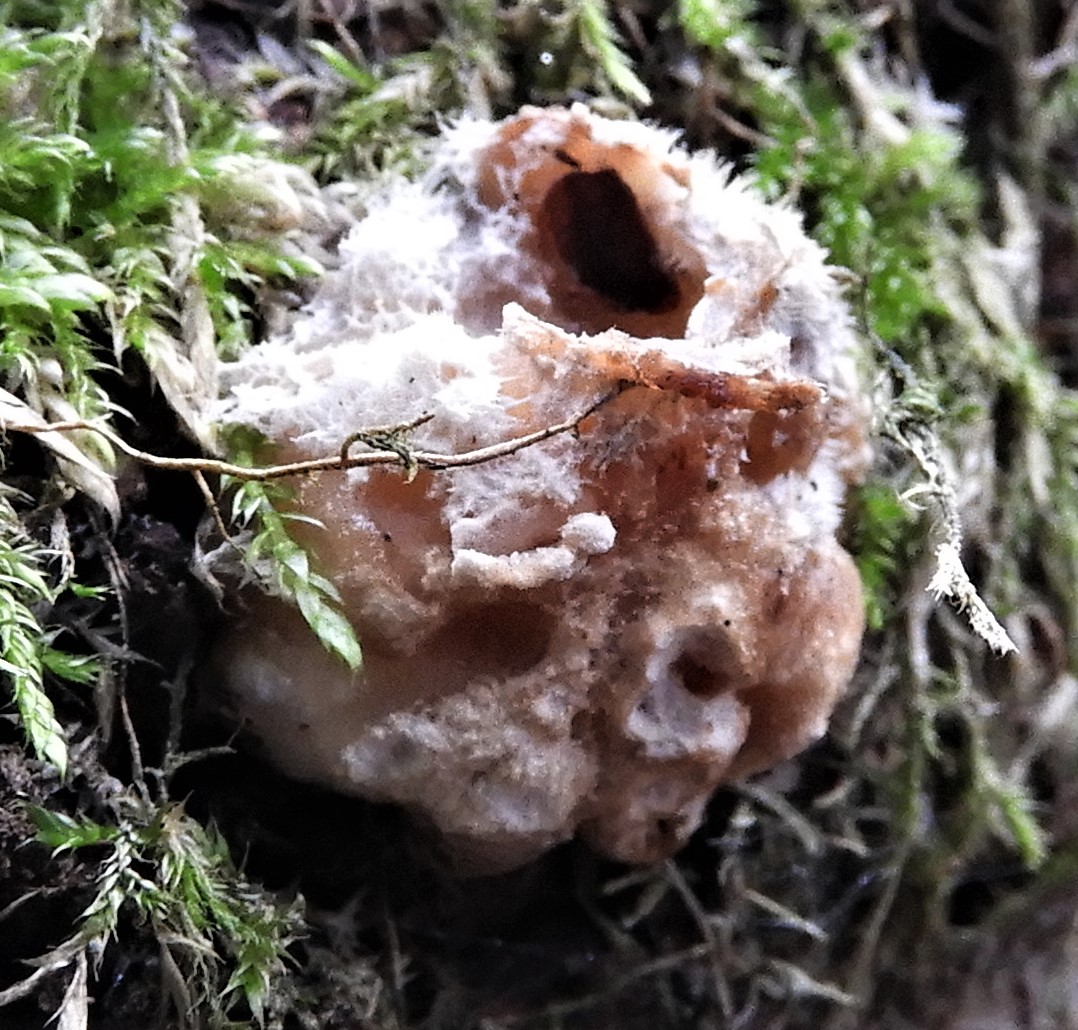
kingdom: Fungi
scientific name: Fungi
